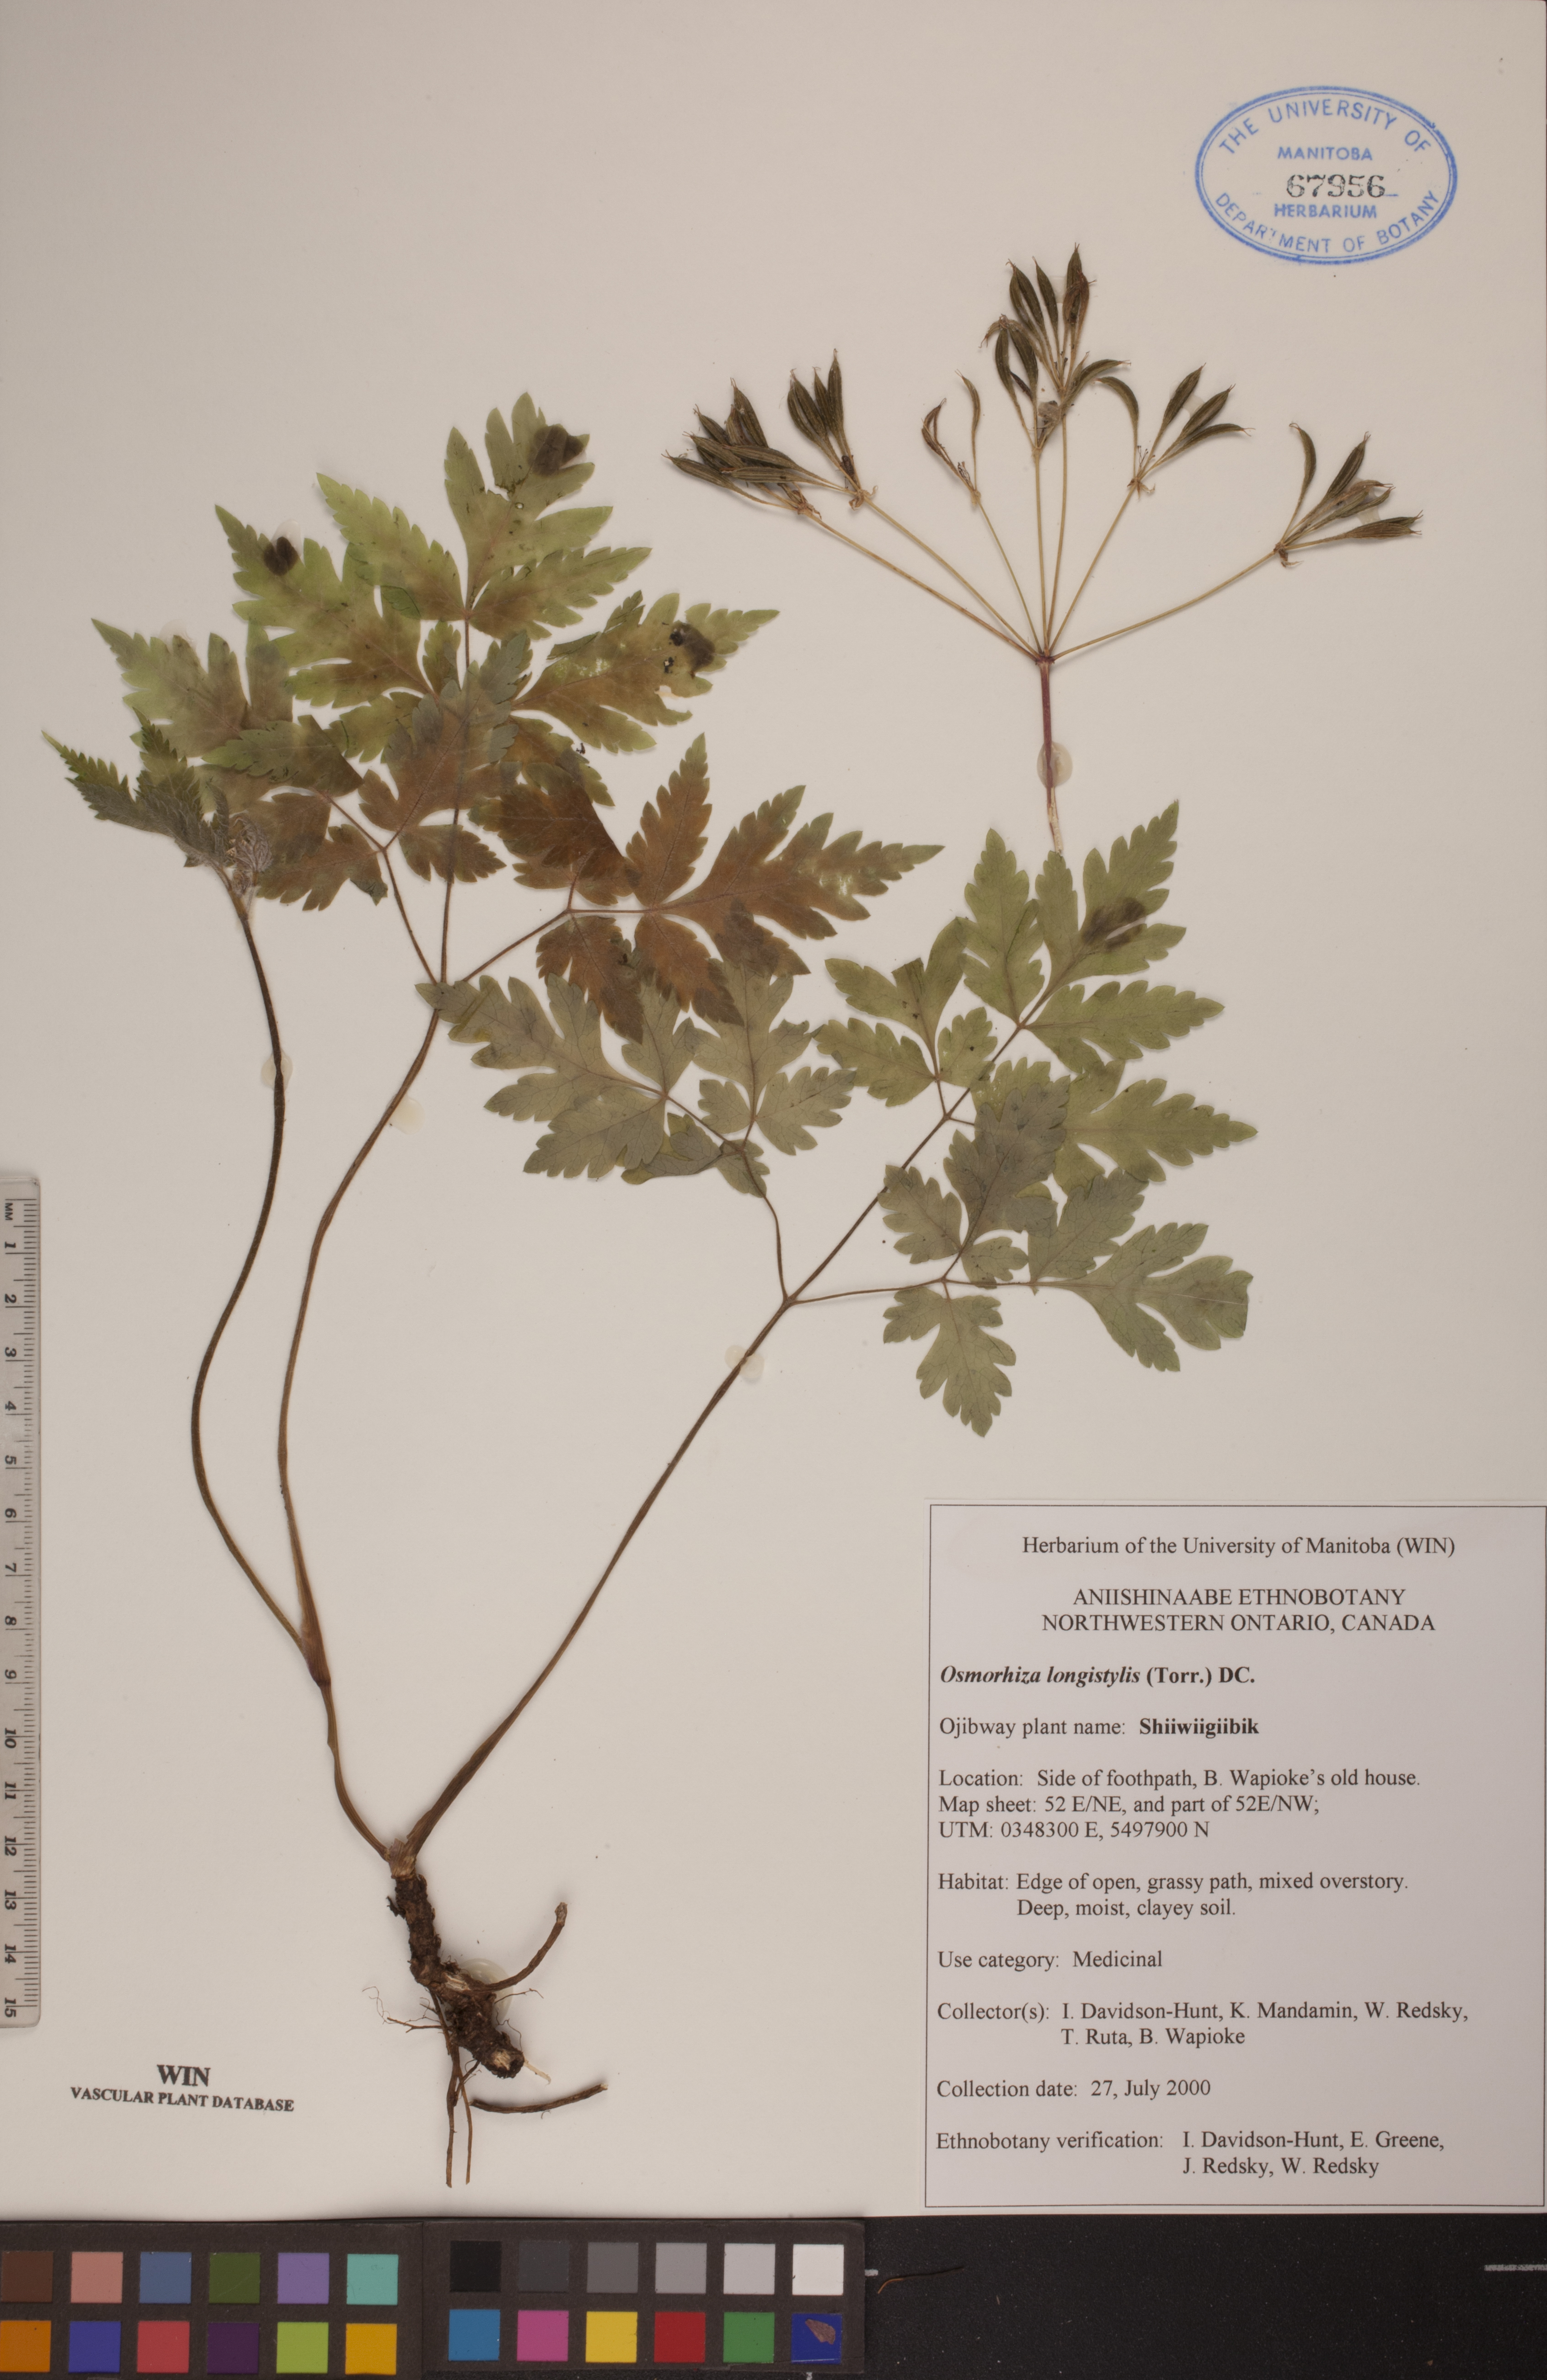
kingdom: Plantae
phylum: Tracheophyta
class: Magnoliopsida
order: Apiales
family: Apiaceae
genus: Osmorhiza
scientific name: Osmorhiza longistylis
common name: Smooth sweet cicely
